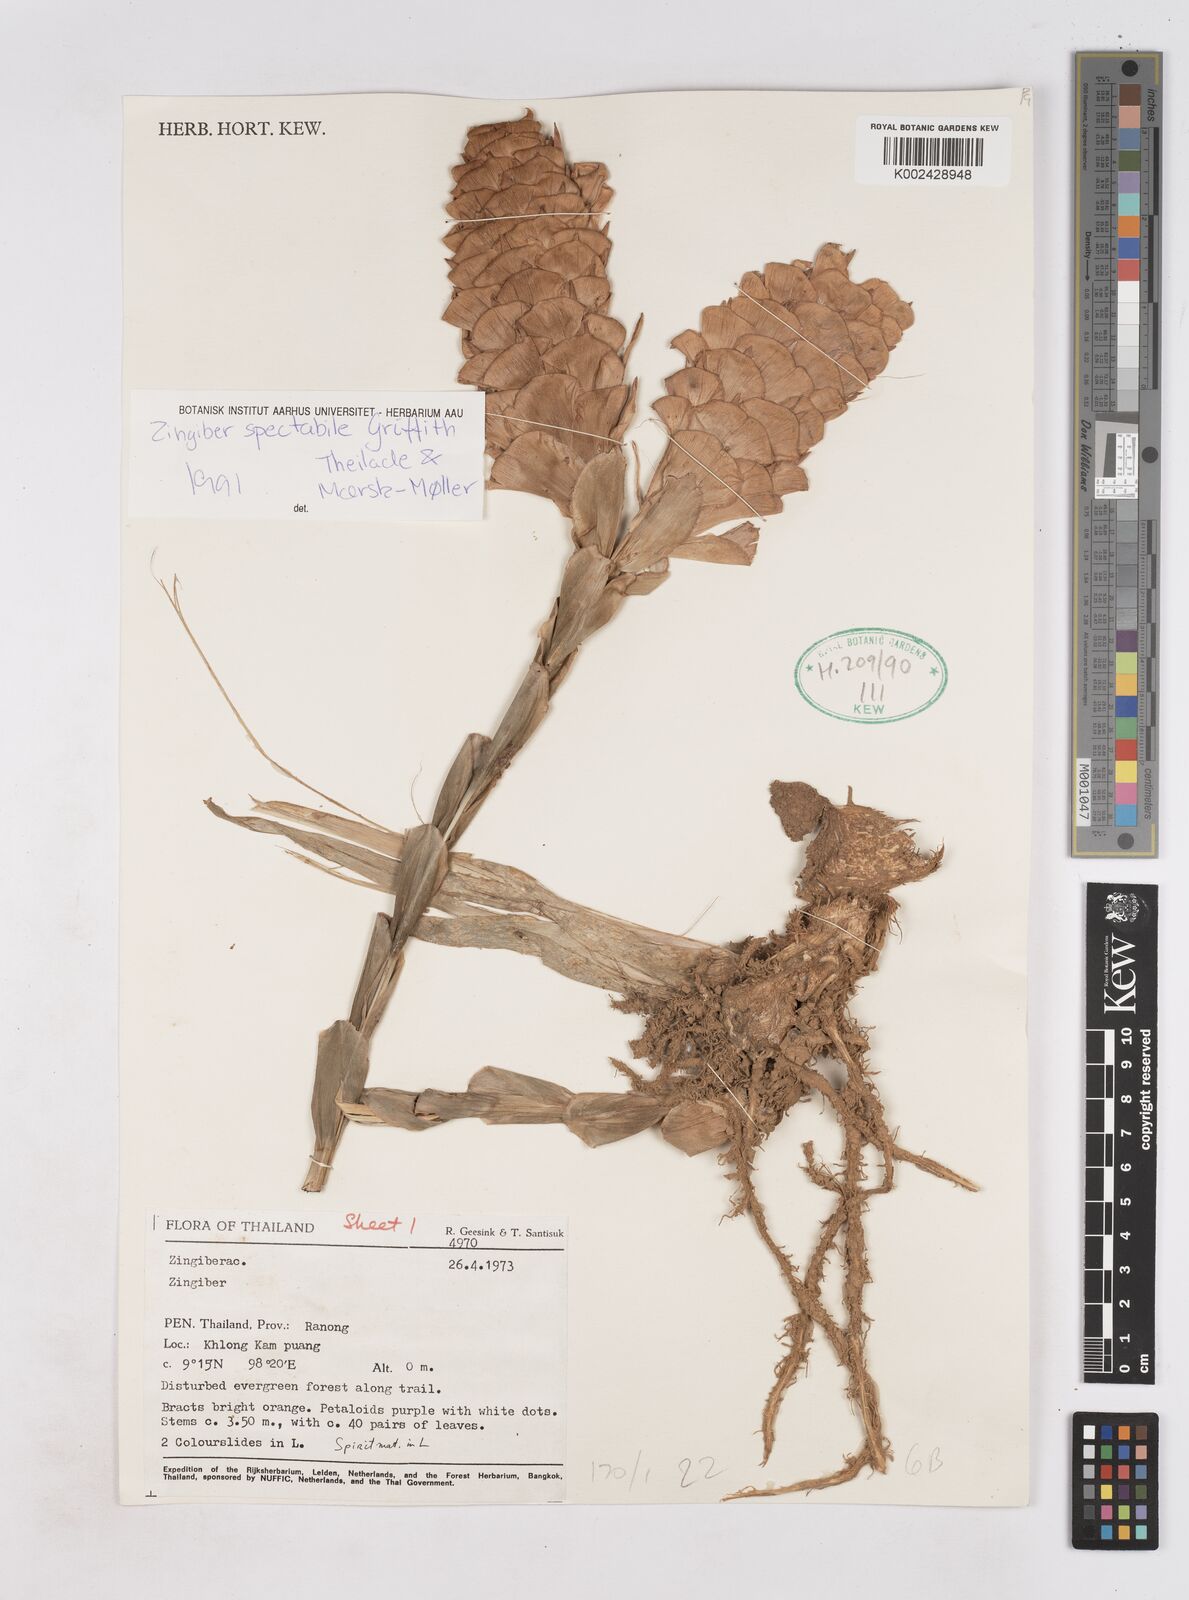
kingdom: Plantae
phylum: Tracheophyta
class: Liliopsida
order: Zingiberales
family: Zingiberaceae
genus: Zingiber
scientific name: Zingiber spectabile
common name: Beehive ginger
